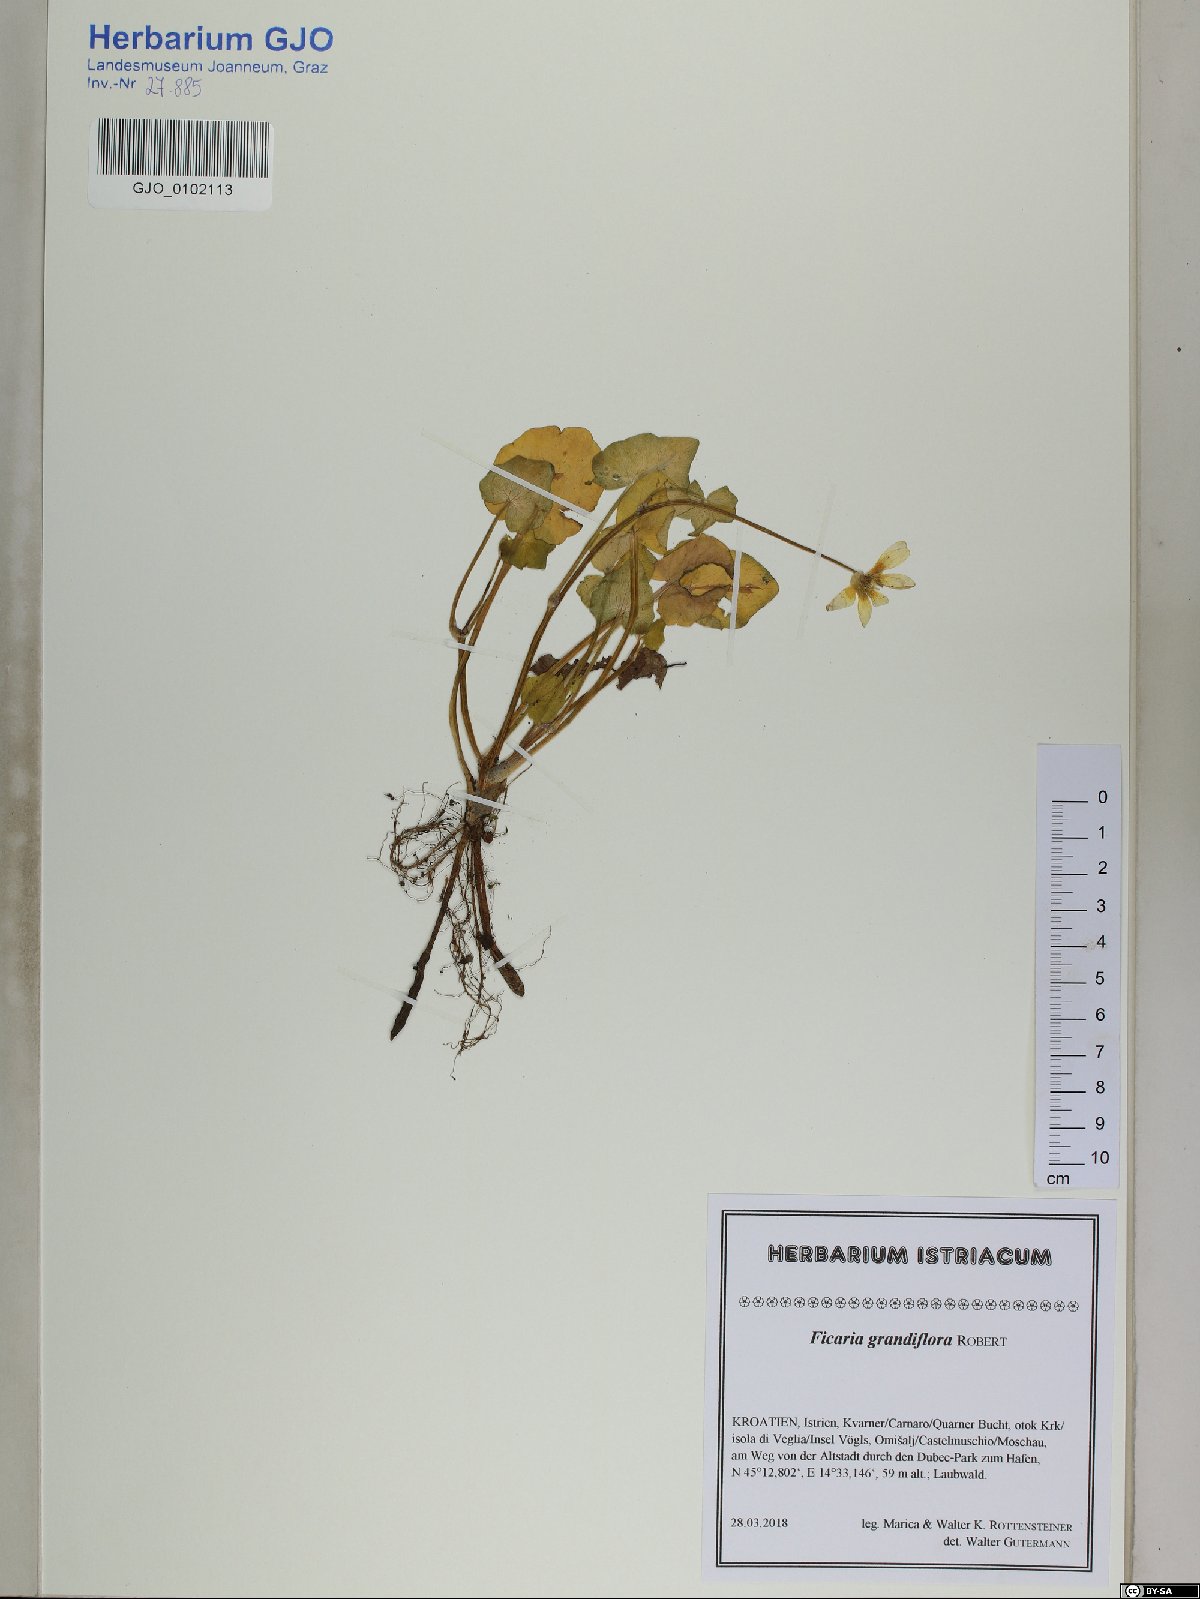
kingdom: Plantae
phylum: Tracheophyta
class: Magnoliopsida
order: Ranunculales
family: Ranunculaceae
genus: Ficaria
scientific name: Ficaria grandiflora
